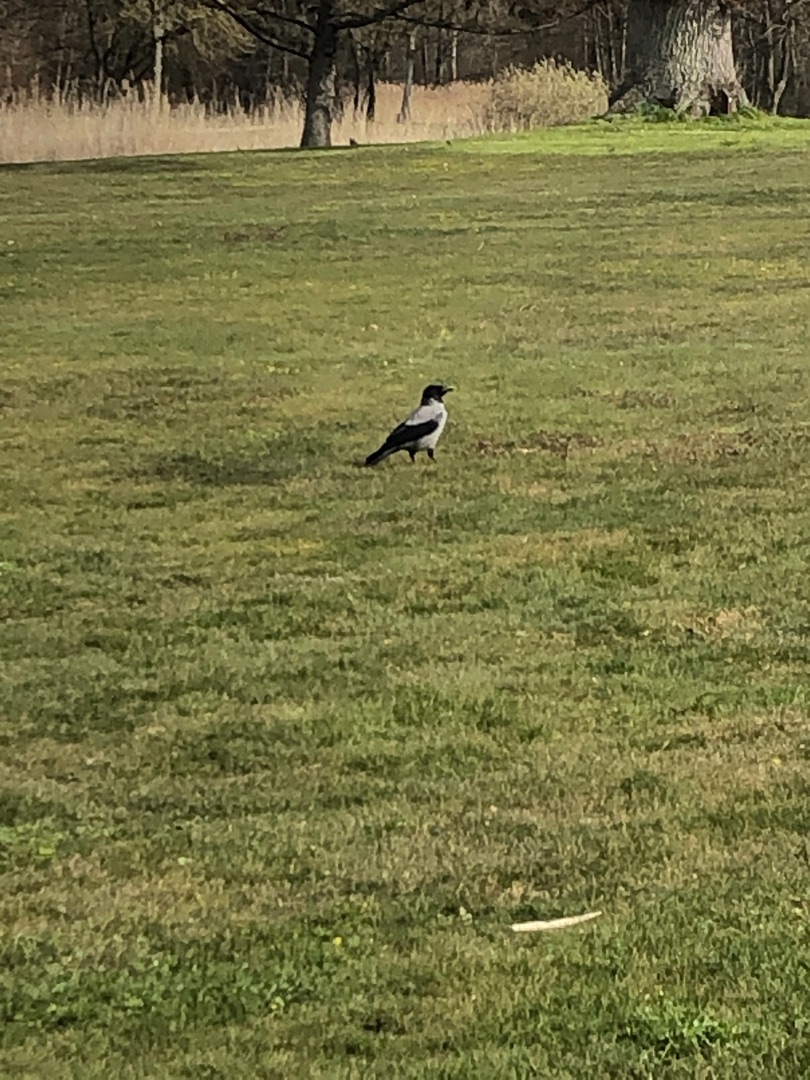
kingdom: Animalia
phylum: Chordata
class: Aves
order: Passeriformes
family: Corvidae
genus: Corvus
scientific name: Corvus cornix
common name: Gråkrage
